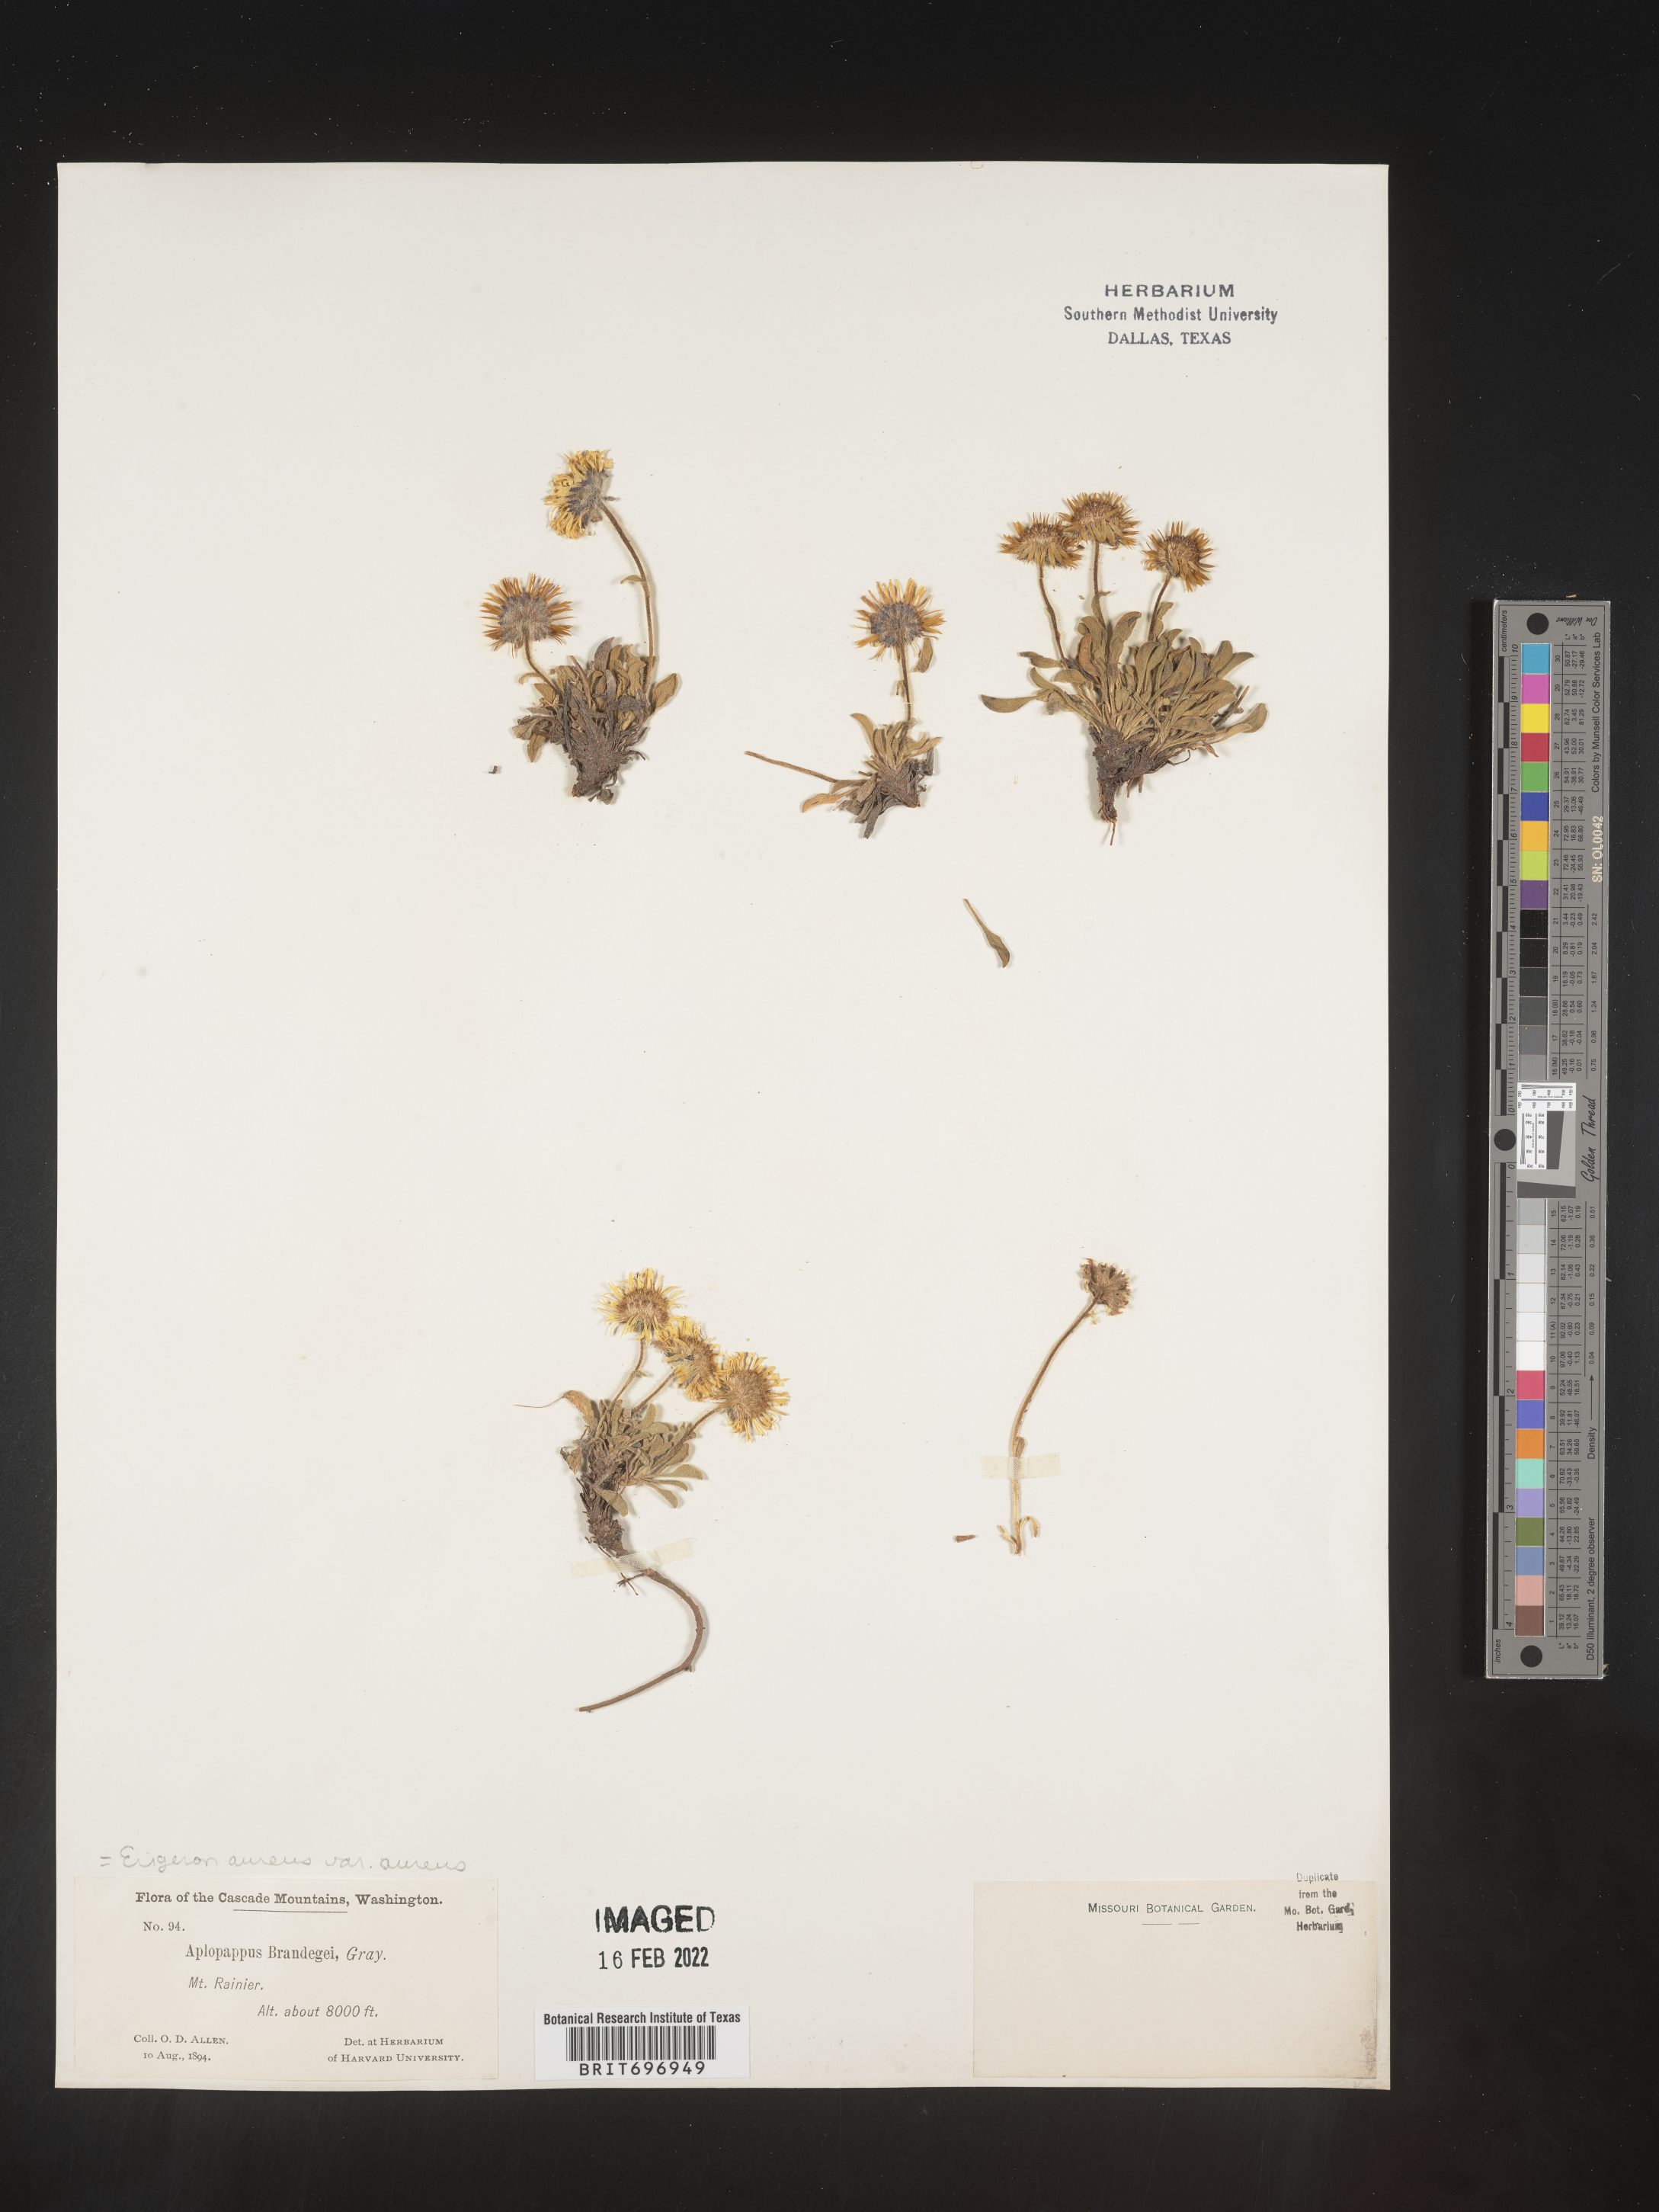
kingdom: Plantae
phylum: Tracheophyta
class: Magnoliopsida
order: Asterales
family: Asteraceae
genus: Erigeron
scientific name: Erigeron aureus
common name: Alpine yellow fleabane
